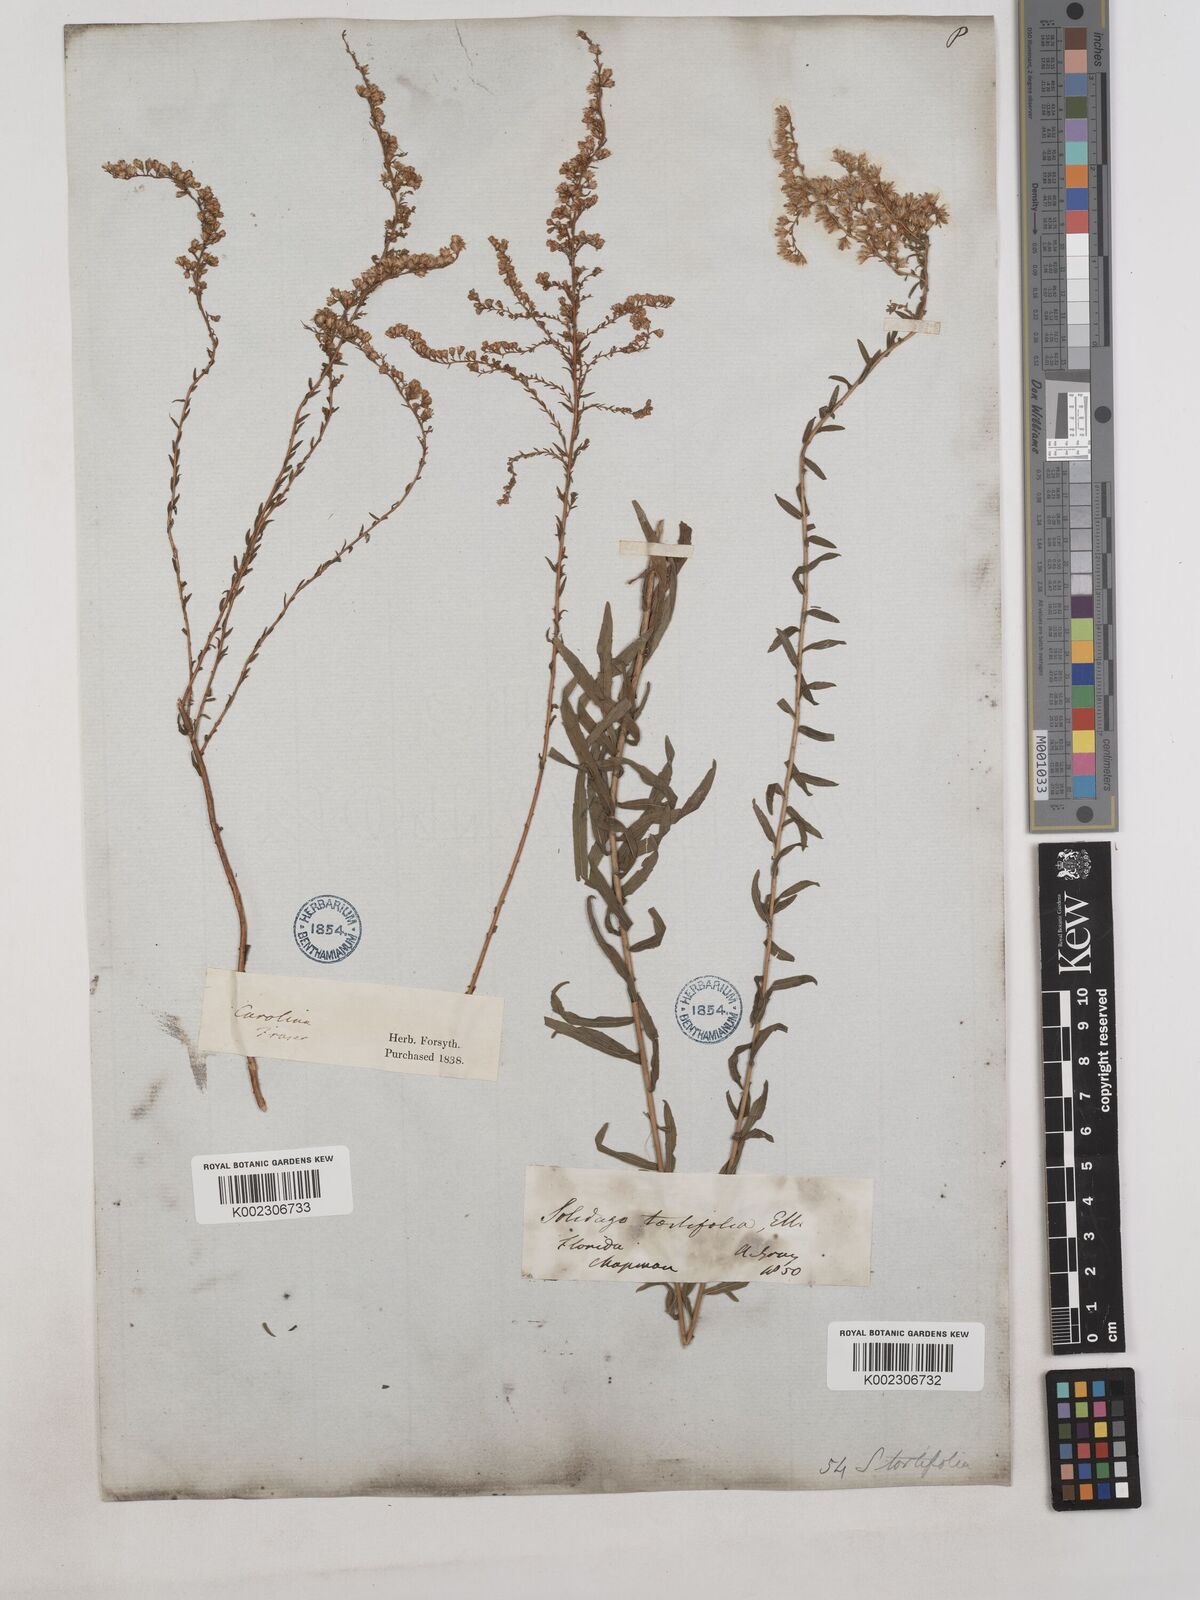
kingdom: Plantae
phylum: Tracheophyta
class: Magnoliopsida
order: Asterales
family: Asteraceae
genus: Solidago
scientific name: Solidago tortifolia
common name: Twisted-leaf goldenrod
